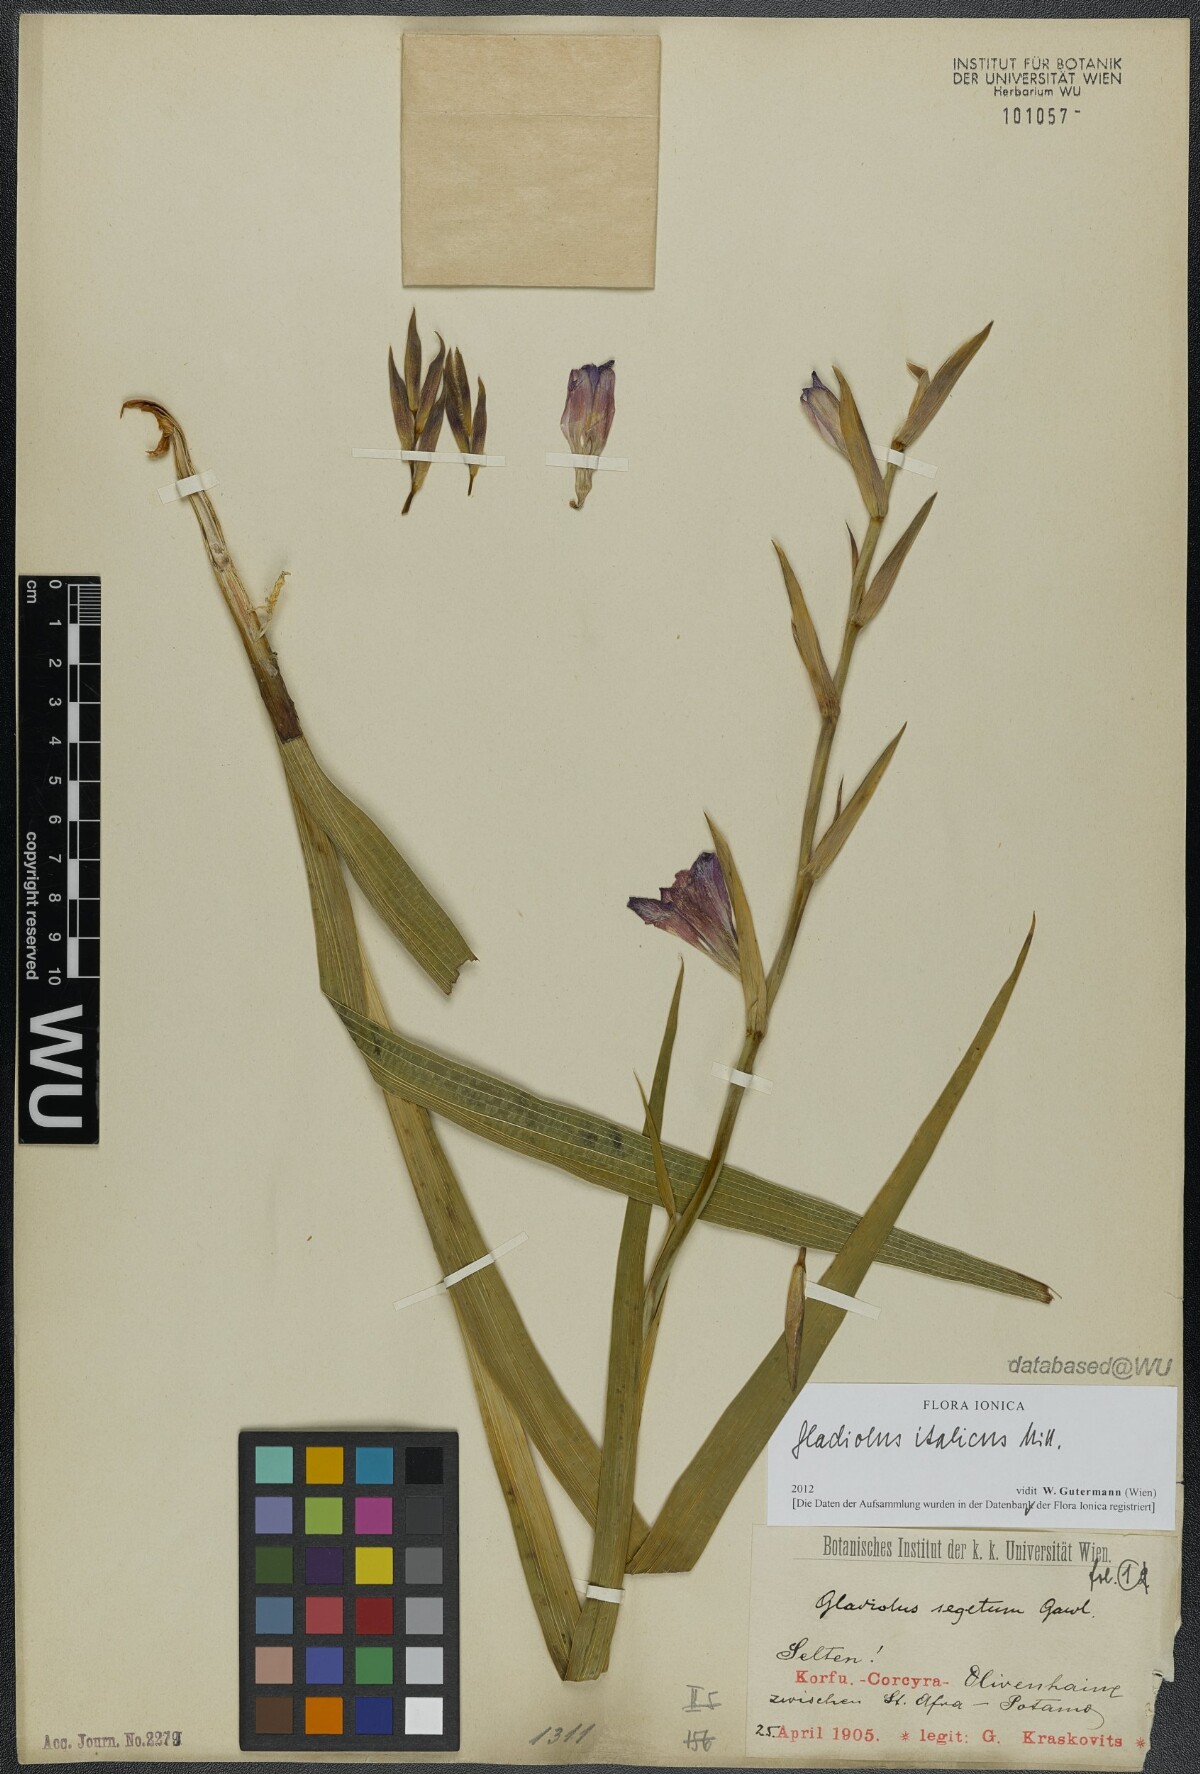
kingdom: Plantae
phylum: Tracheophyta
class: Liliopsida
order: Asparagales
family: Iridaceae
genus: Gladiolus
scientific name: Gladiolus italicus
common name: Field gladiolus
